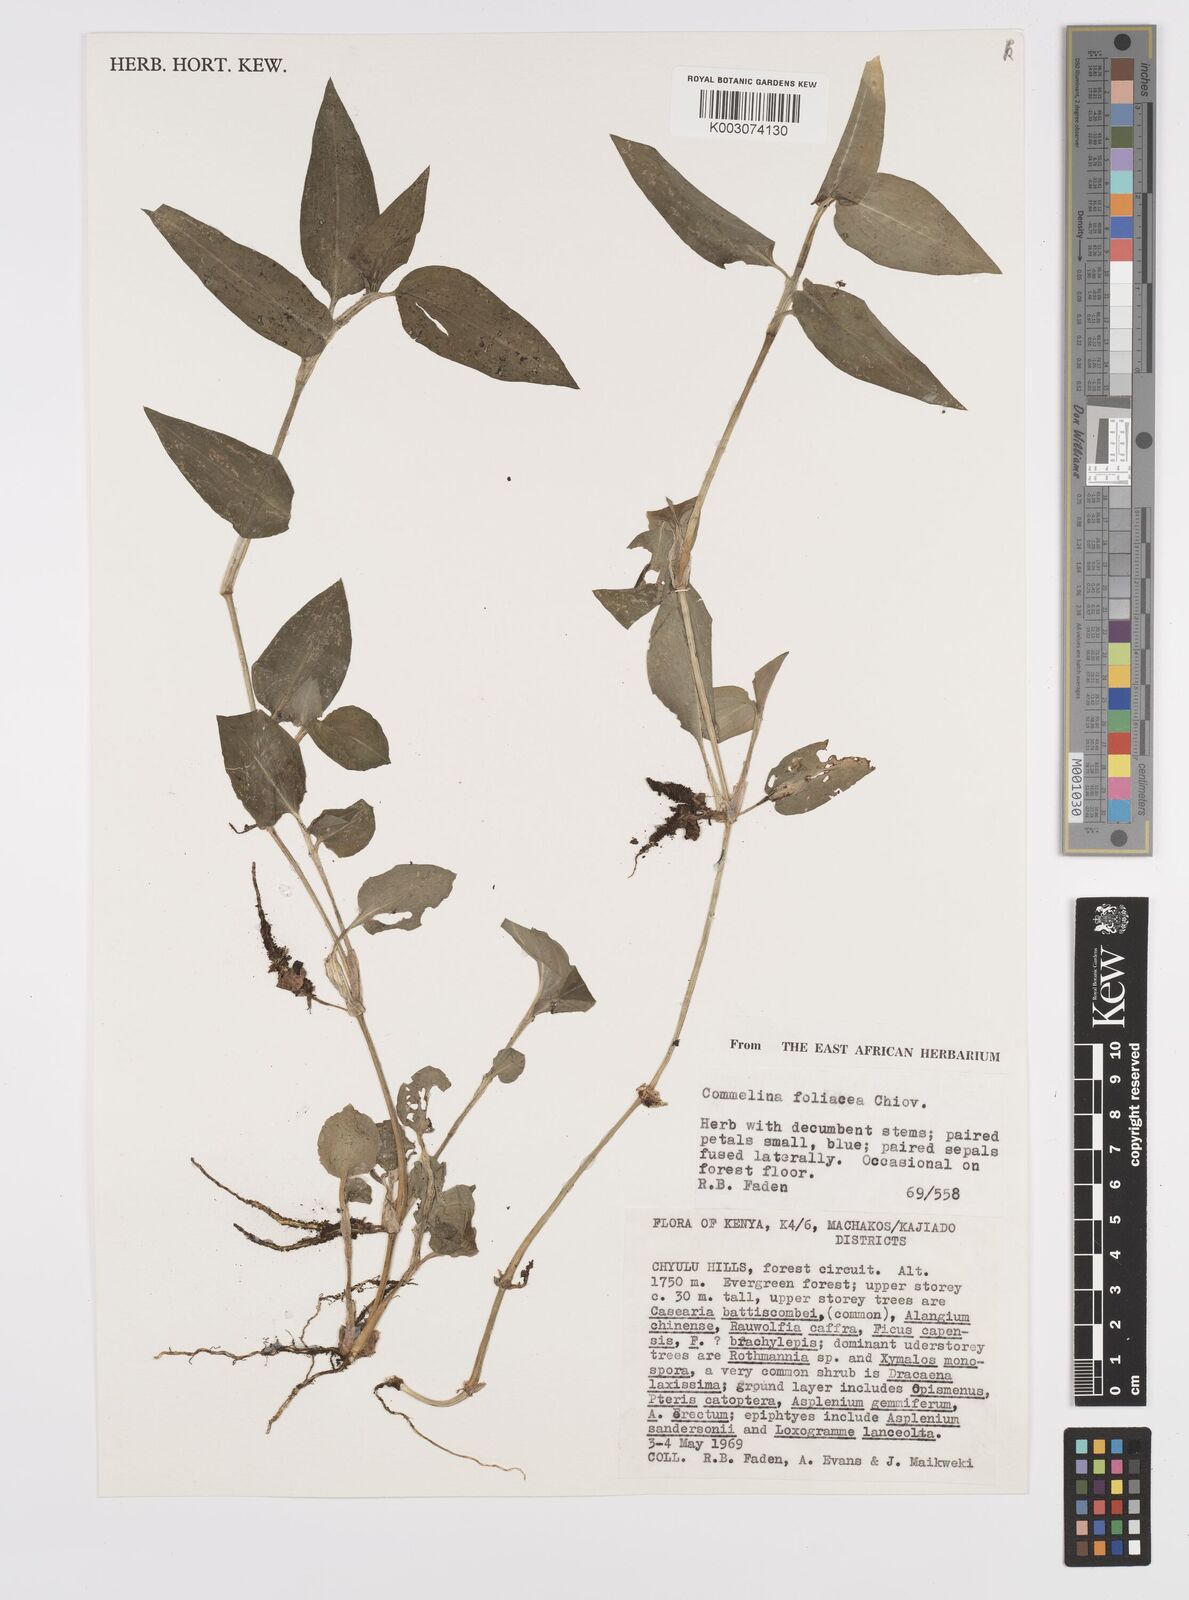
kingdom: Plantae
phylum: Tracheophyta
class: Liliopsida
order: Commelinales
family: Commelinaceae
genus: Commelina
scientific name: Commelina foliacea
